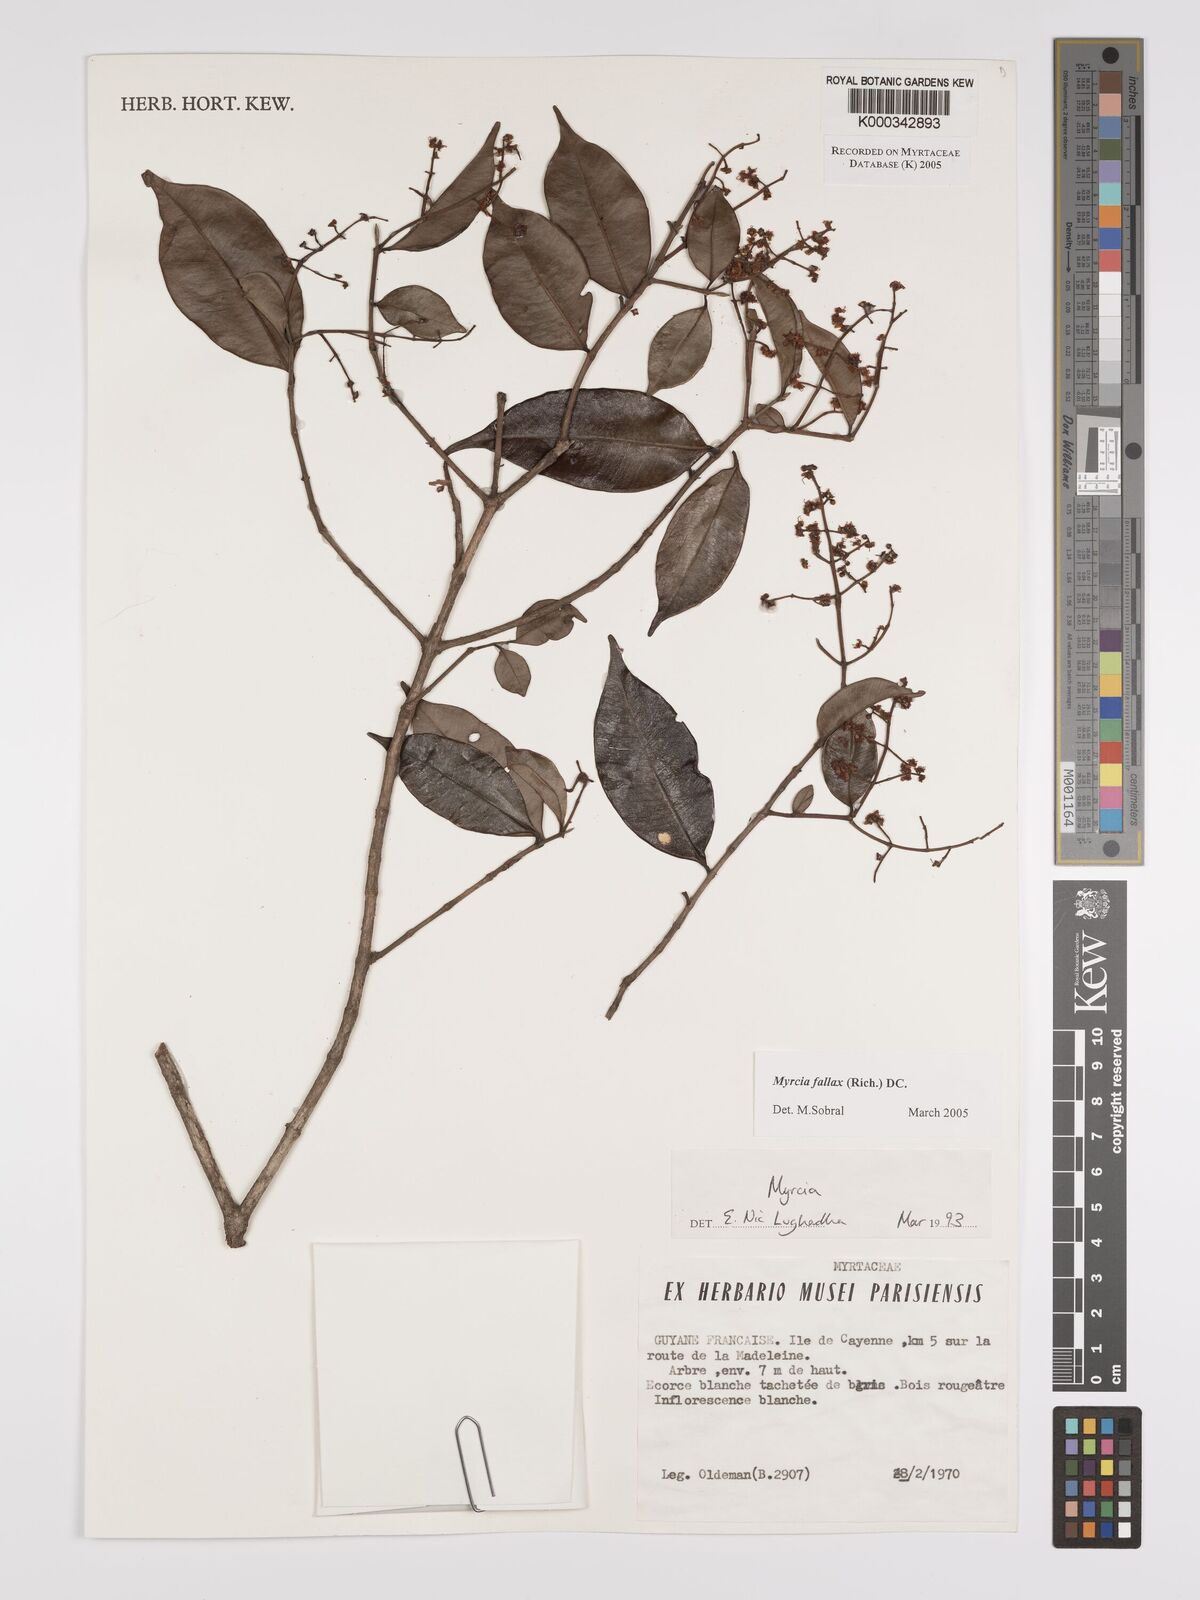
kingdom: Plantae
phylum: Tracheophyta
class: Magnoliopsida
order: Myrtales
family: Myrtaceae
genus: Myrcia
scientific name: Myrcia splendens
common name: Surinam cherry
